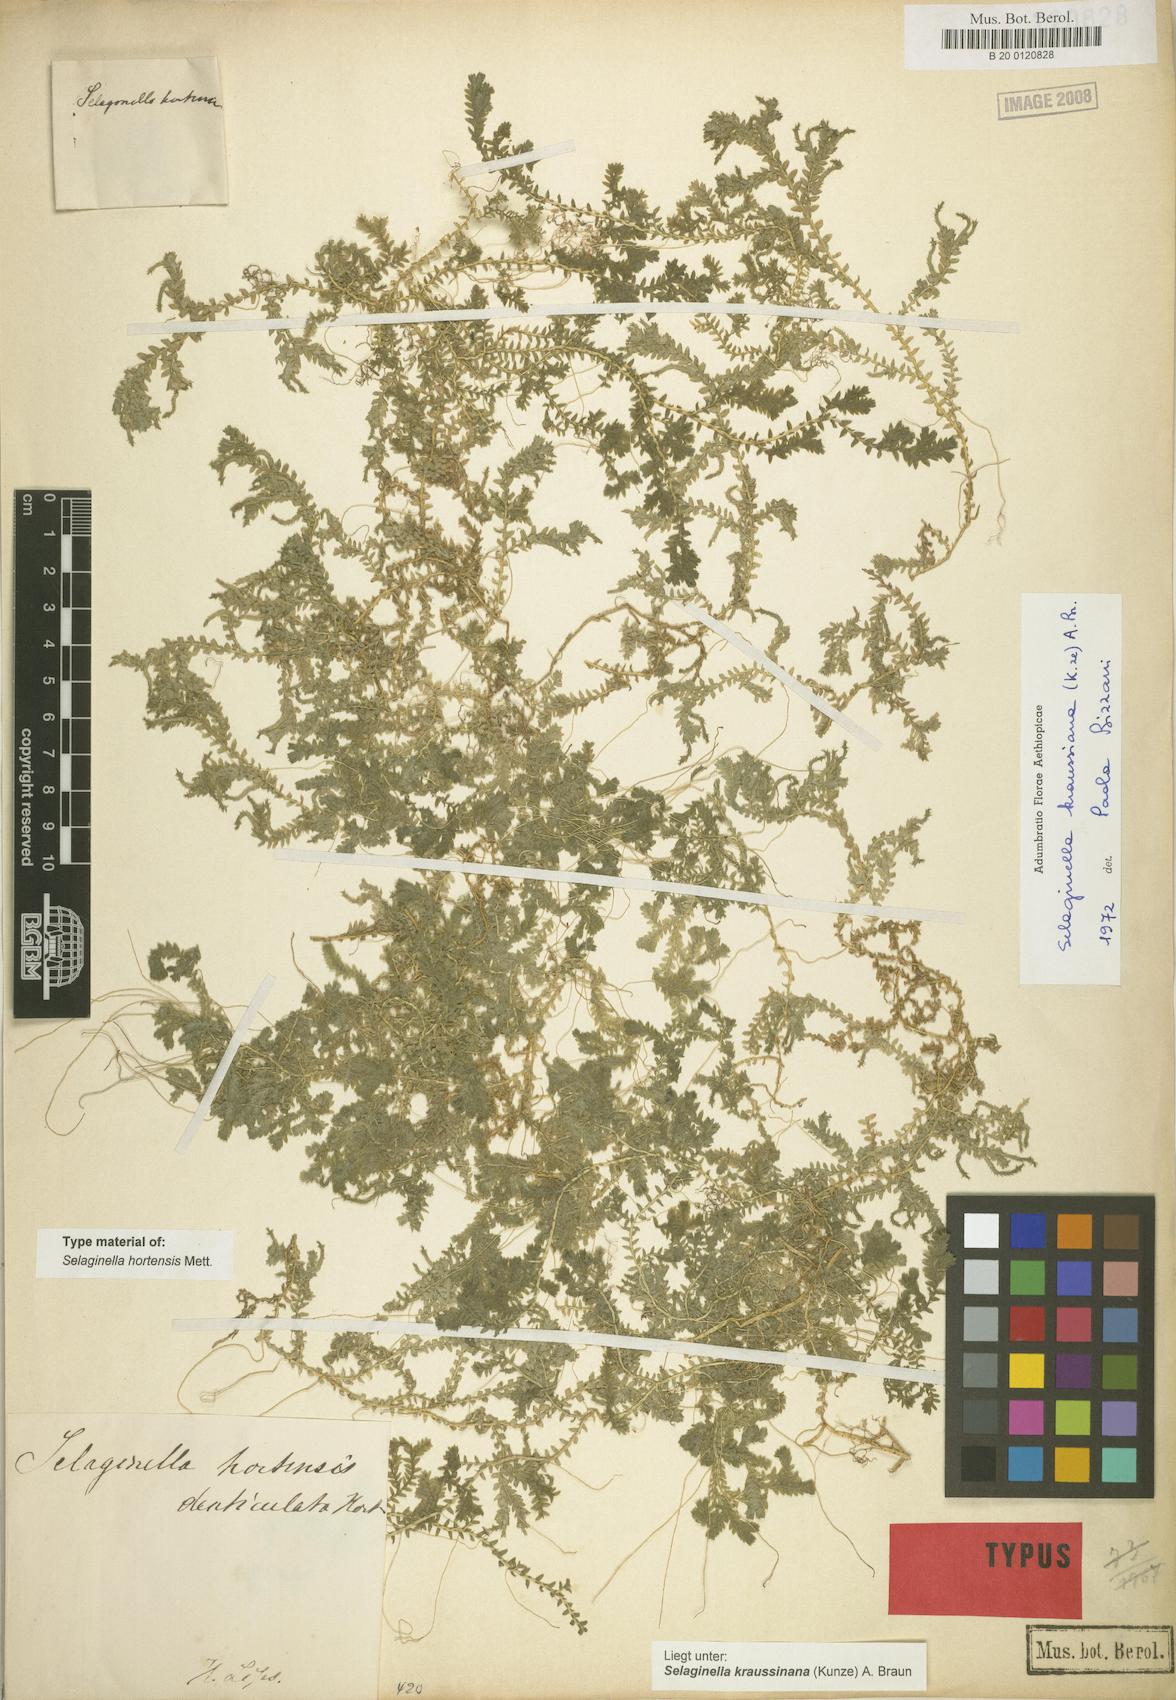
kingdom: Plantae
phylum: Tracheophyta
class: Lycopodiopsida
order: Selaginellales
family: Selaginellaceae
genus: Selaginella
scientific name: Selaginella kraussiana
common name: Krauss' spikemoss
